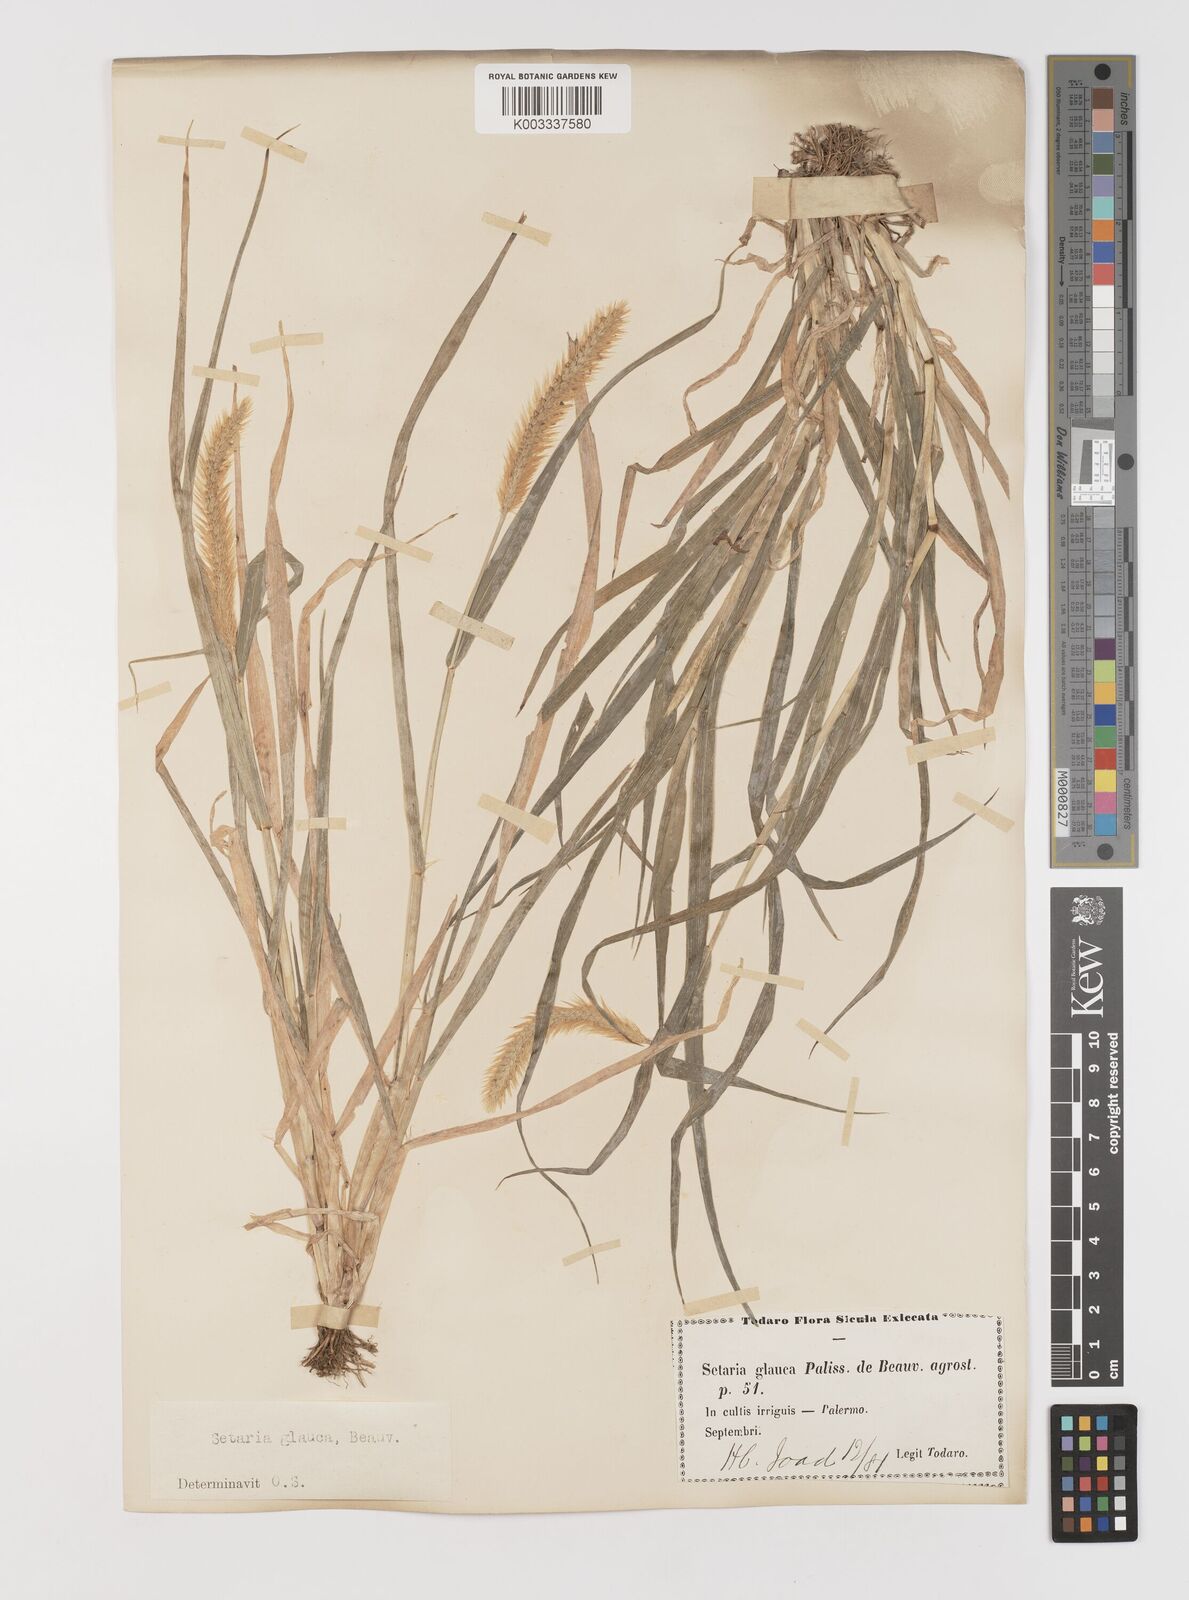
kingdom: Plantae
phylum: Tracheophyta
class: Liliopsida
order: Poales
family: Poaceae
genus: Setaria
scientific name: Setaria pumila
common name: Yellow bristle-grass
